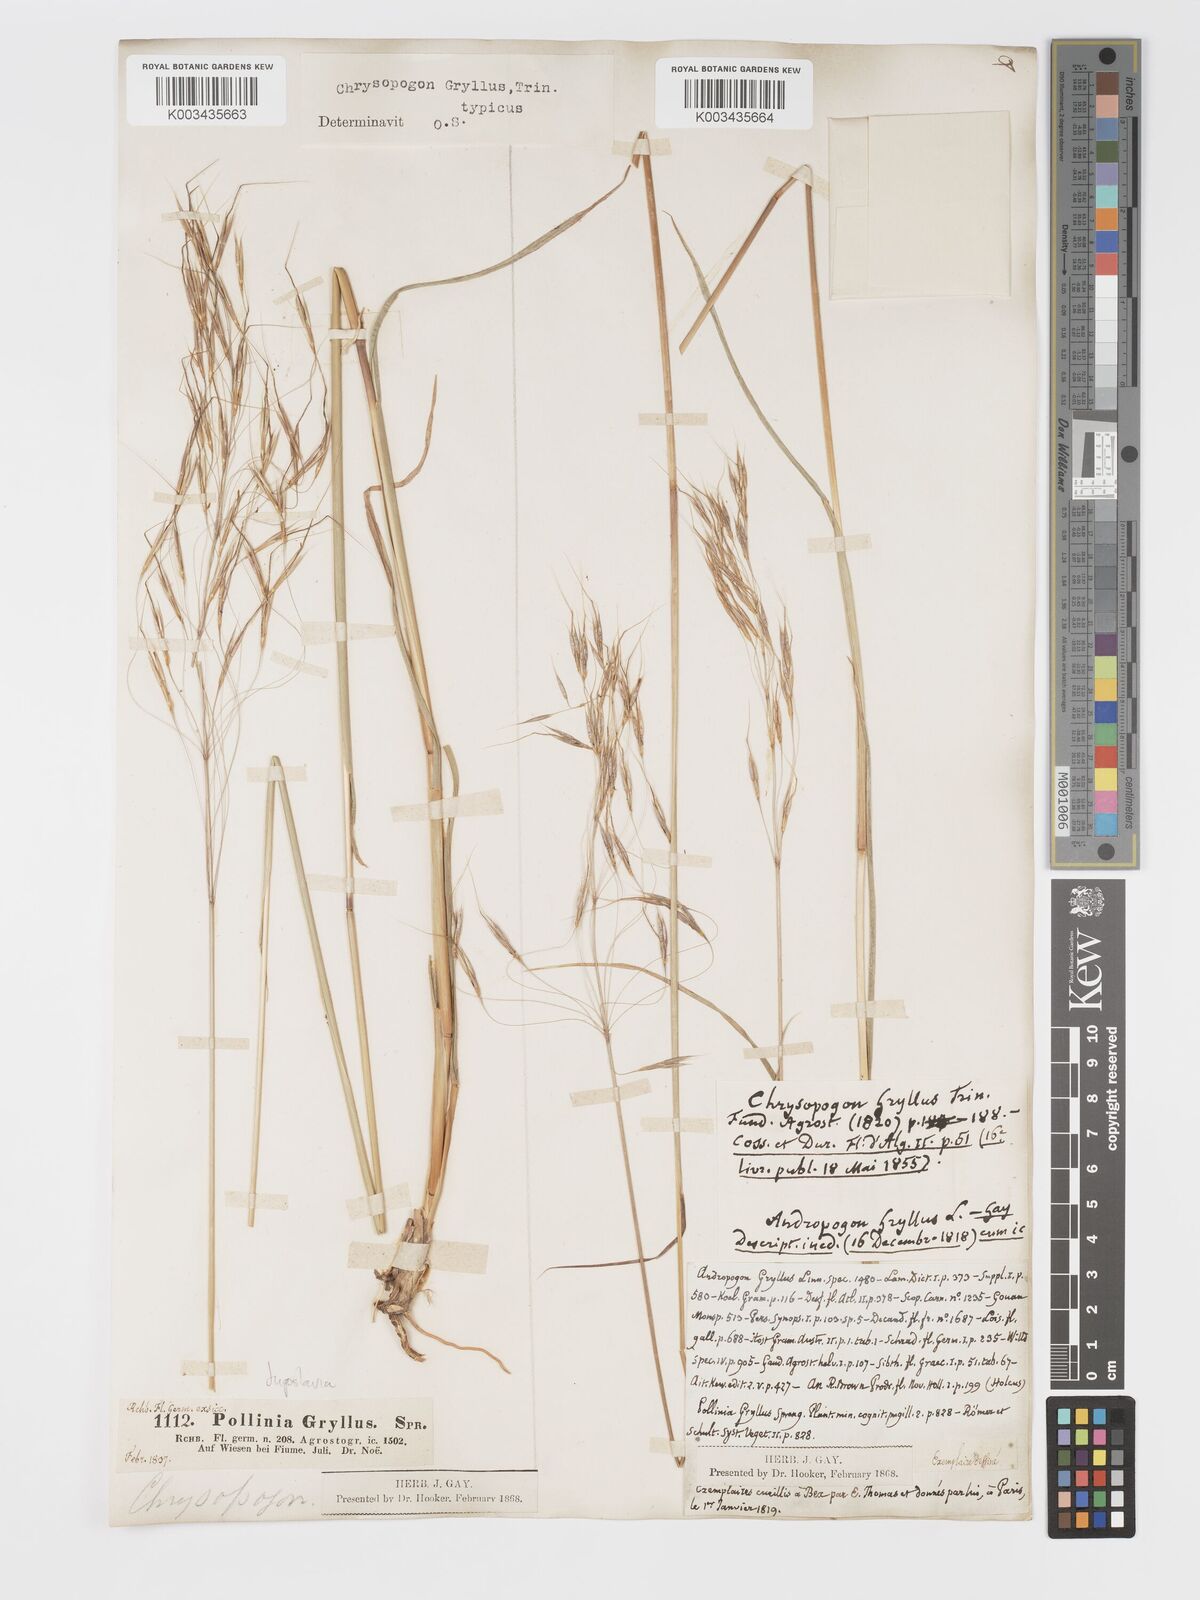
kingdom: Plantae
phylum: Tracheophyta
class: Liliopsida
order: Poales
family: Poaceae
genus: Chrysopogon
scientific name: Chrysopogon gryllus
